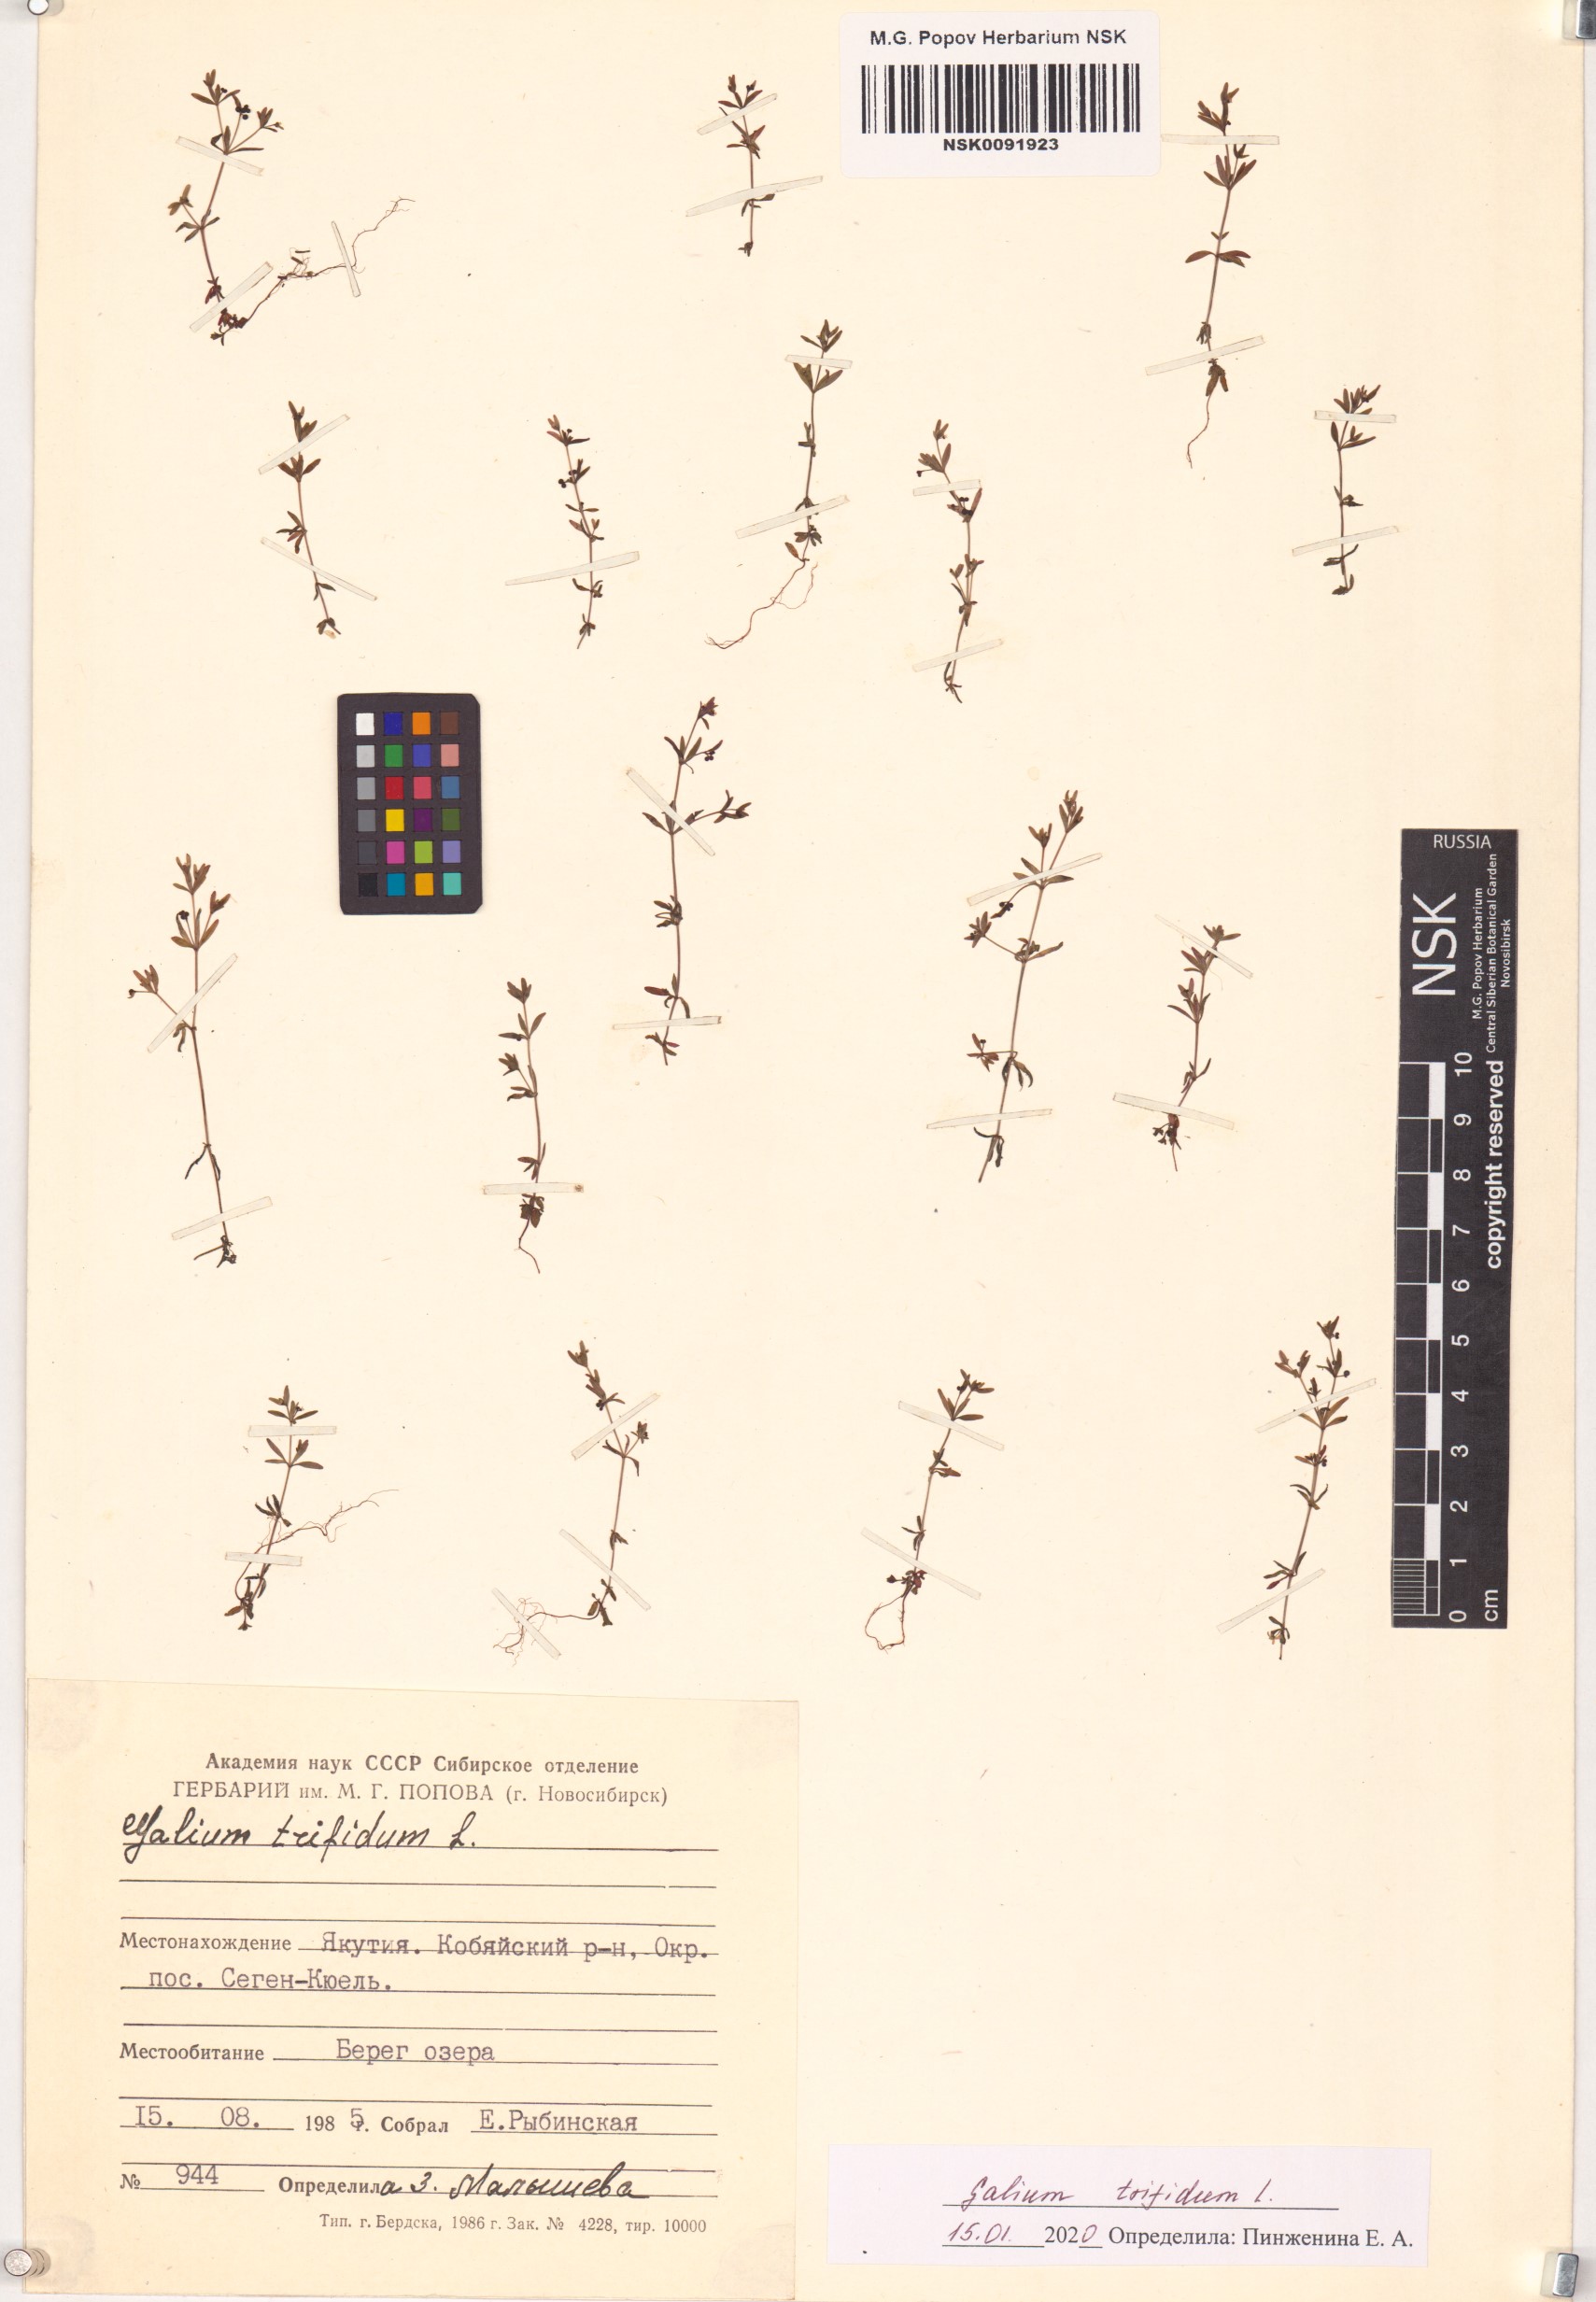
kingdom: Plantae
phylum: Tracheophyta
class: Magnoliopsida
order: Gentianales
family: Rubiaceae
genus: Galium
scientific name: Galium trifidum
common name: Small bedstraw
